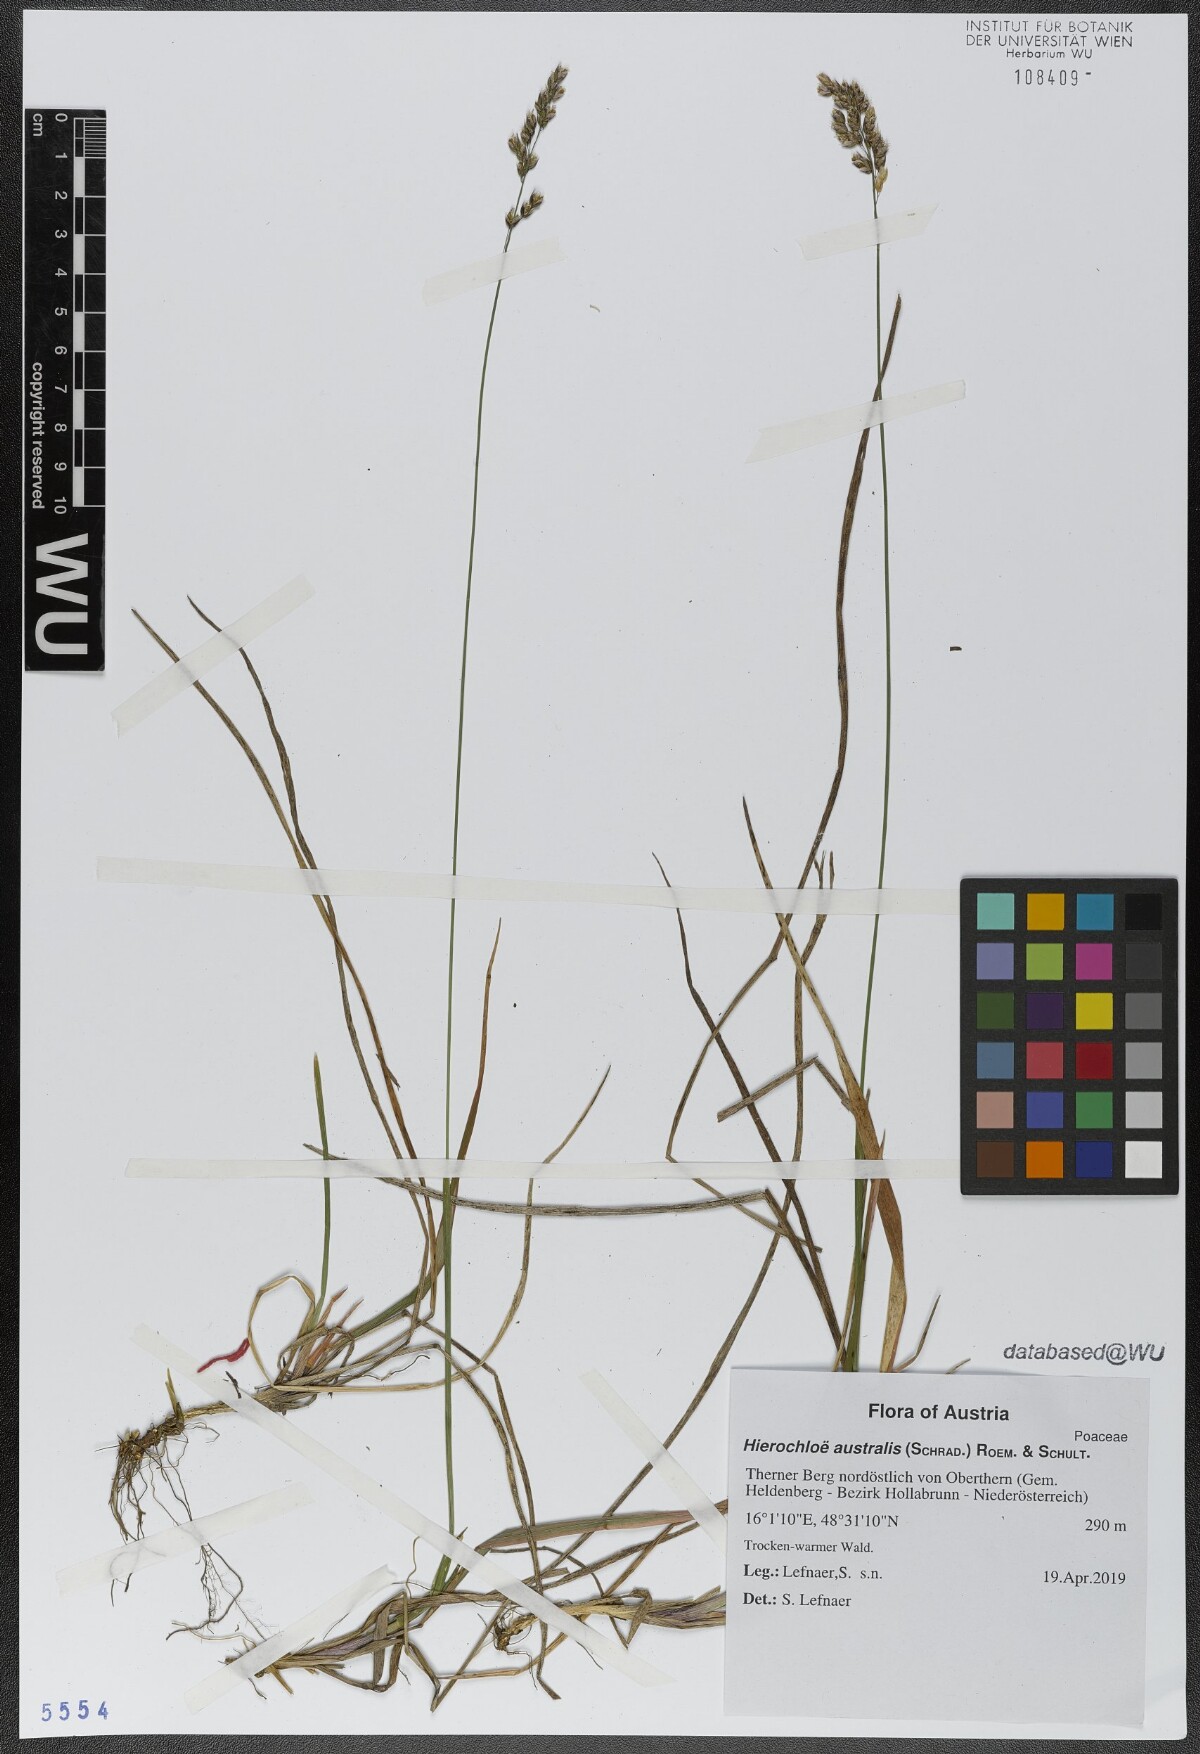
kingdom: Plantae
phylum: Tracheophyta
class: Liliopsida
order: Poales
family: Poaceae
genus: Anthoxanthum
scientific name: Anthoxanthum australe
